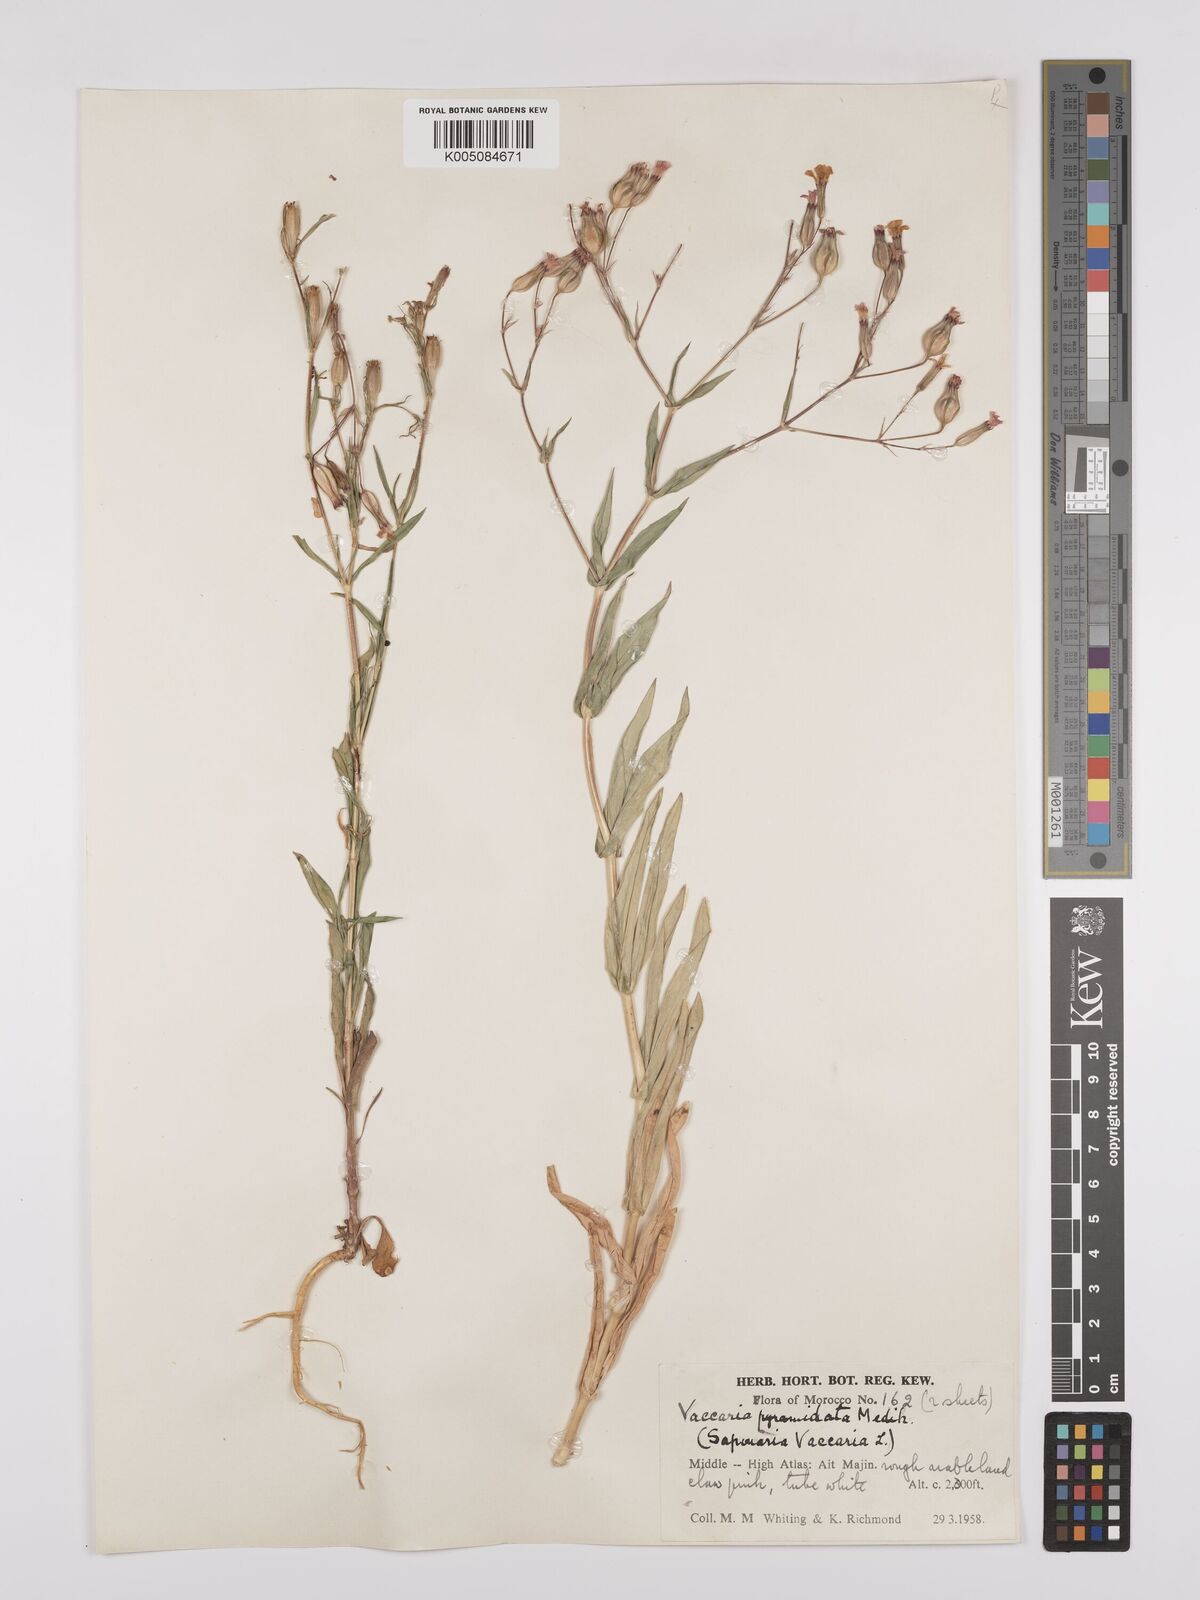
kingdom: Plantae
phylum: Tracheophyta
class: Magnoliopsida
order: Caryophyllales
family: Caryophyllaceae
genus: Gypsophila
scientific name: Gypsophila vaccaria
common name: Cow soapwort
